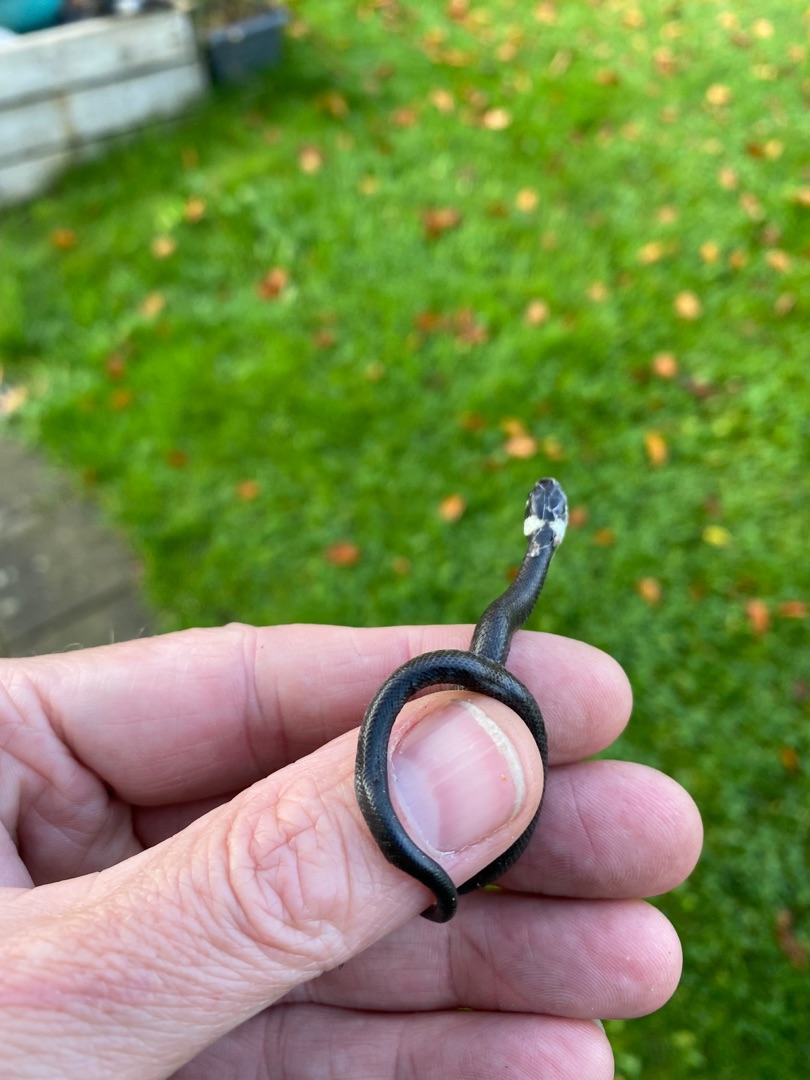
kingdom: Animalia
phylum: Chordata
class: Squamata
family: Colubridae
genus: Natrix
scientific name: Natrix natrix
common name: Snog
